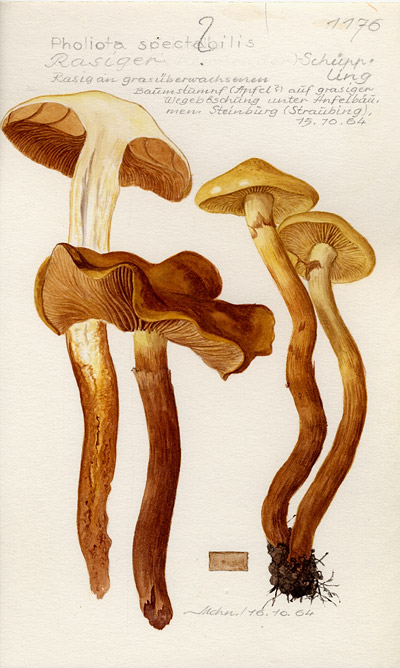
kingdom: Fungi
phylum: Basidiomycota
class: Agaricomycetes
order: Agaricales
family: Hymenogastraceae
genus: Gymnopilus
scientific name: Gymnopilus spectabilis
